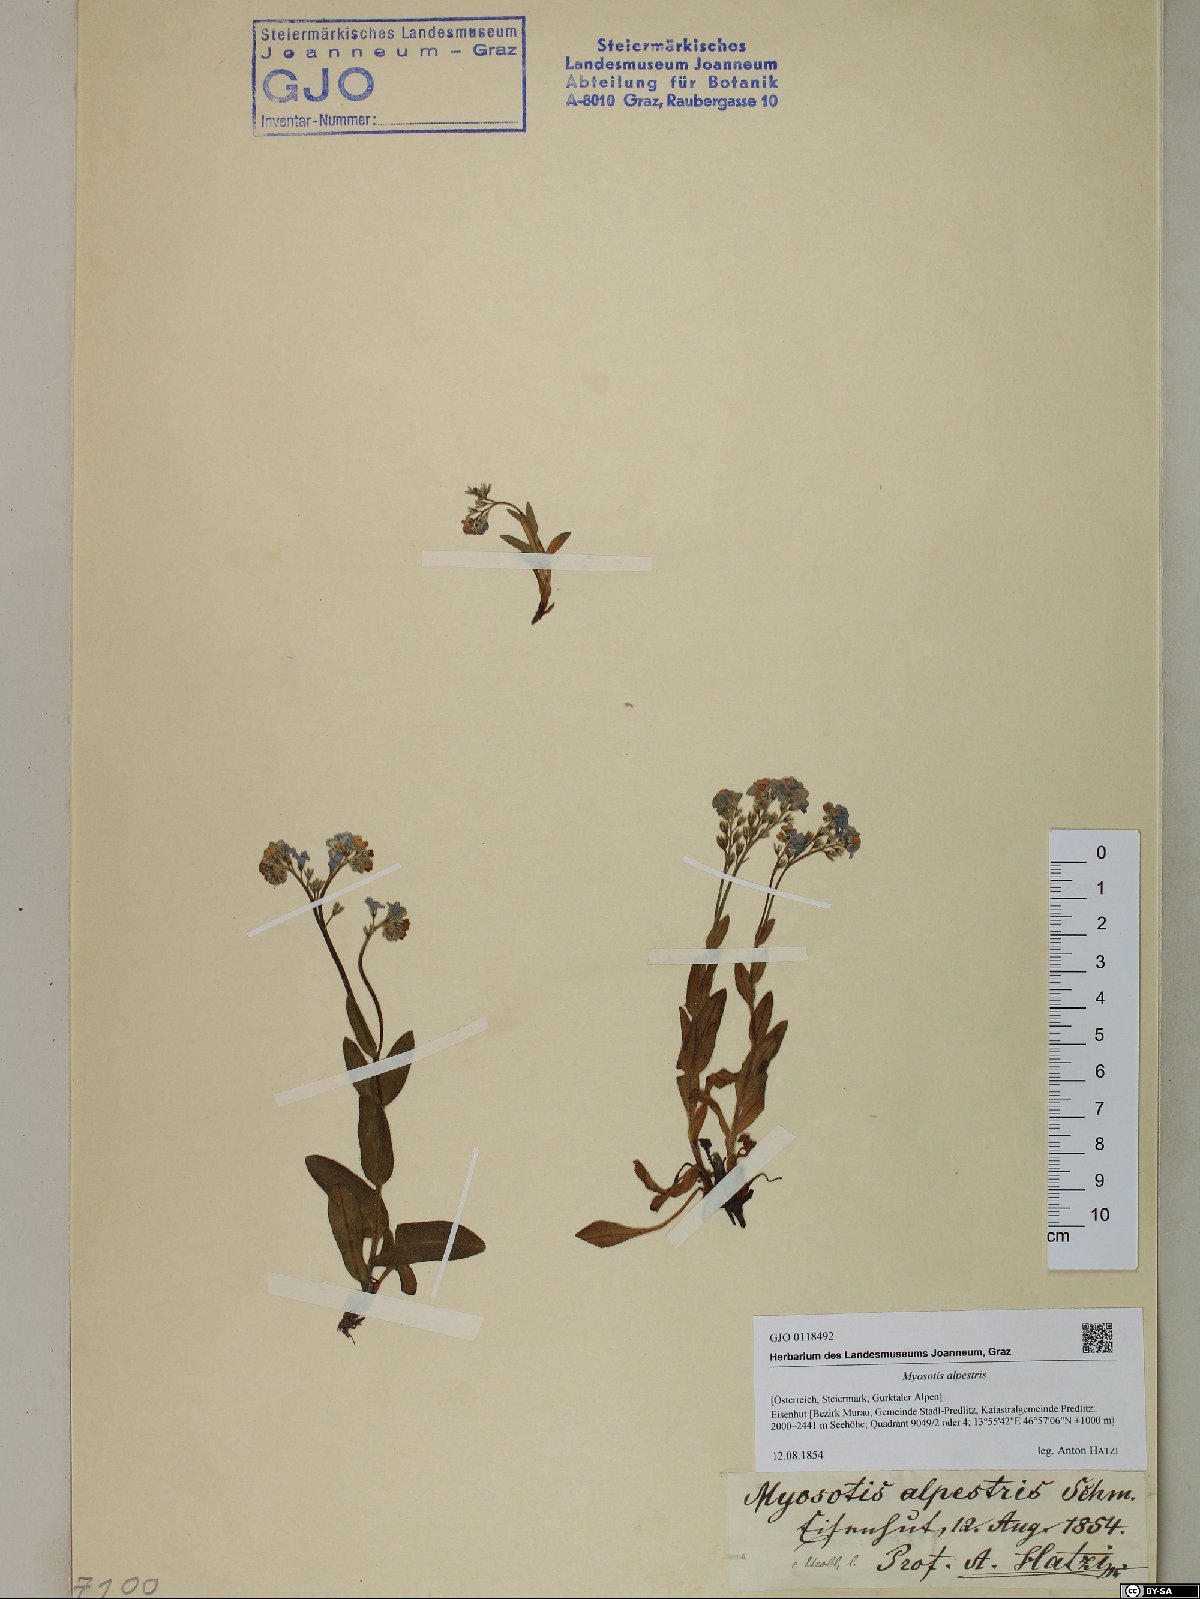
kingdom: Plantae
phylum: Tracheophyta
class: Magnoliopsida
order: Boraginales
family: Boraginaceae
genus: Myosotis
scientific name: Myosotis alpestris
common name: Alpine forget-me-not
